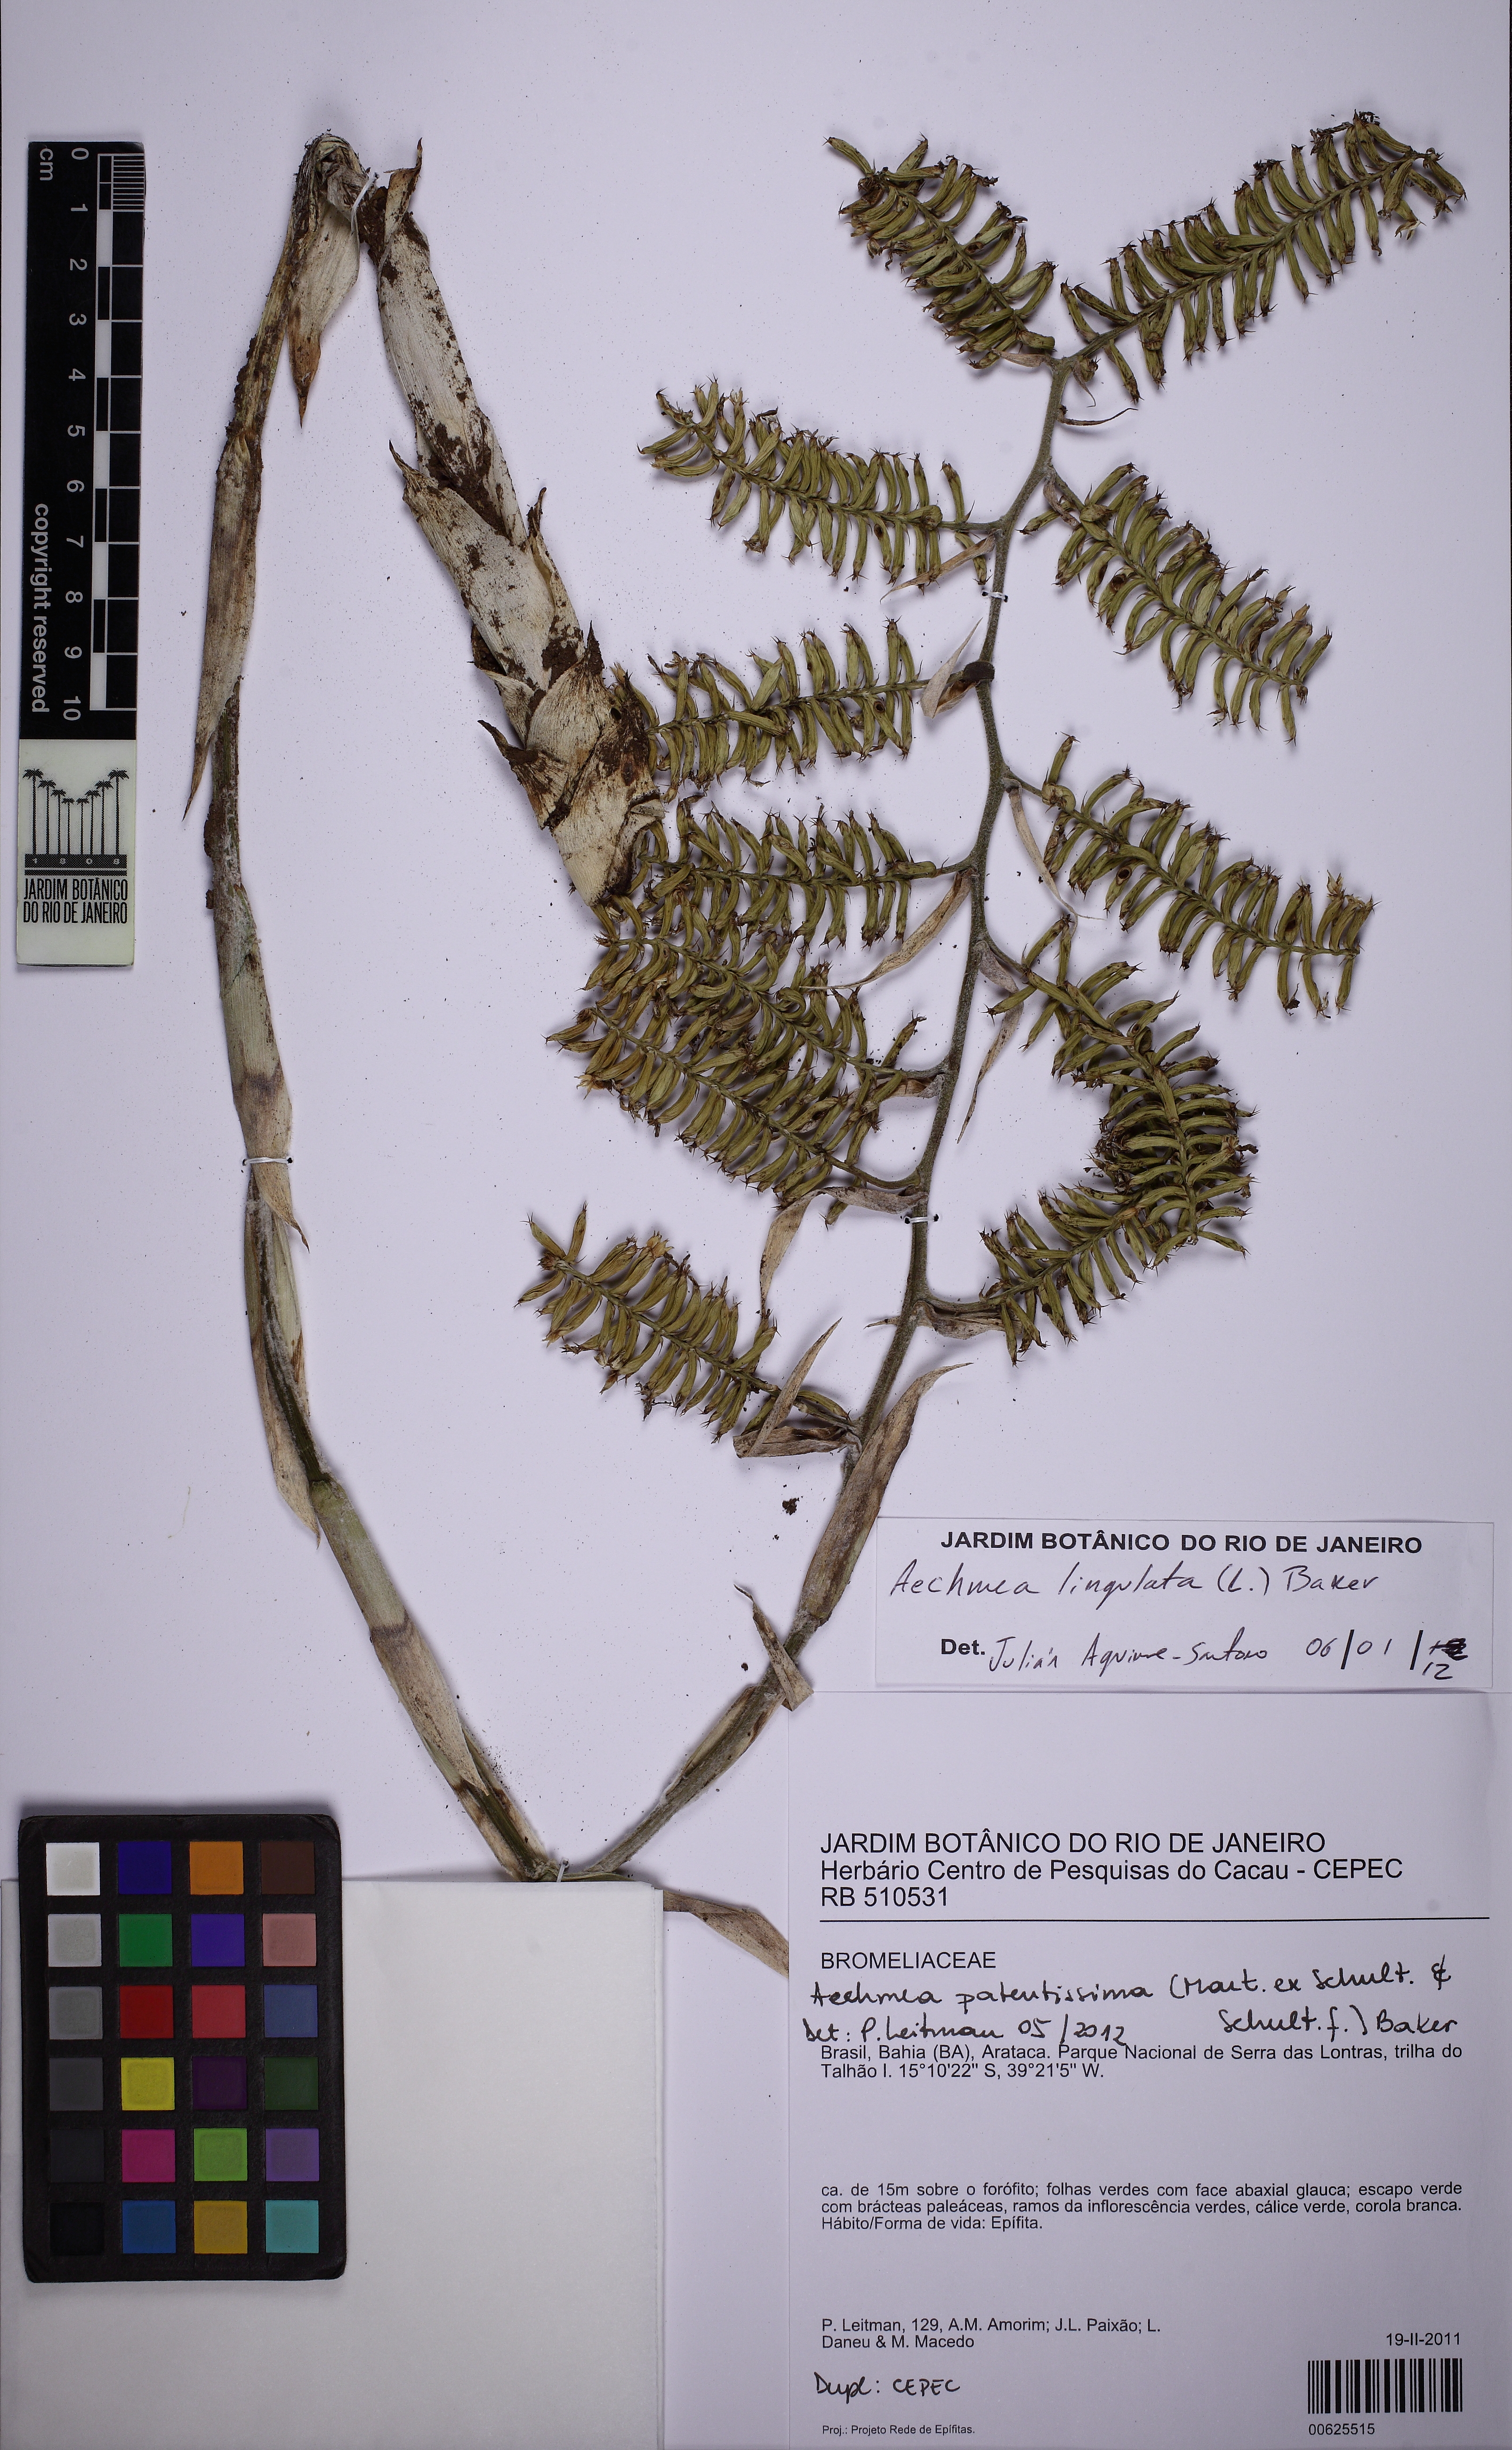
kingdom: Plantae
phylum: Tracheophyta
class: Liliopsida
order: Poales
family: Bromeliaceae
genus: Wittmackia
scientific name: Wittmackia patentissima
